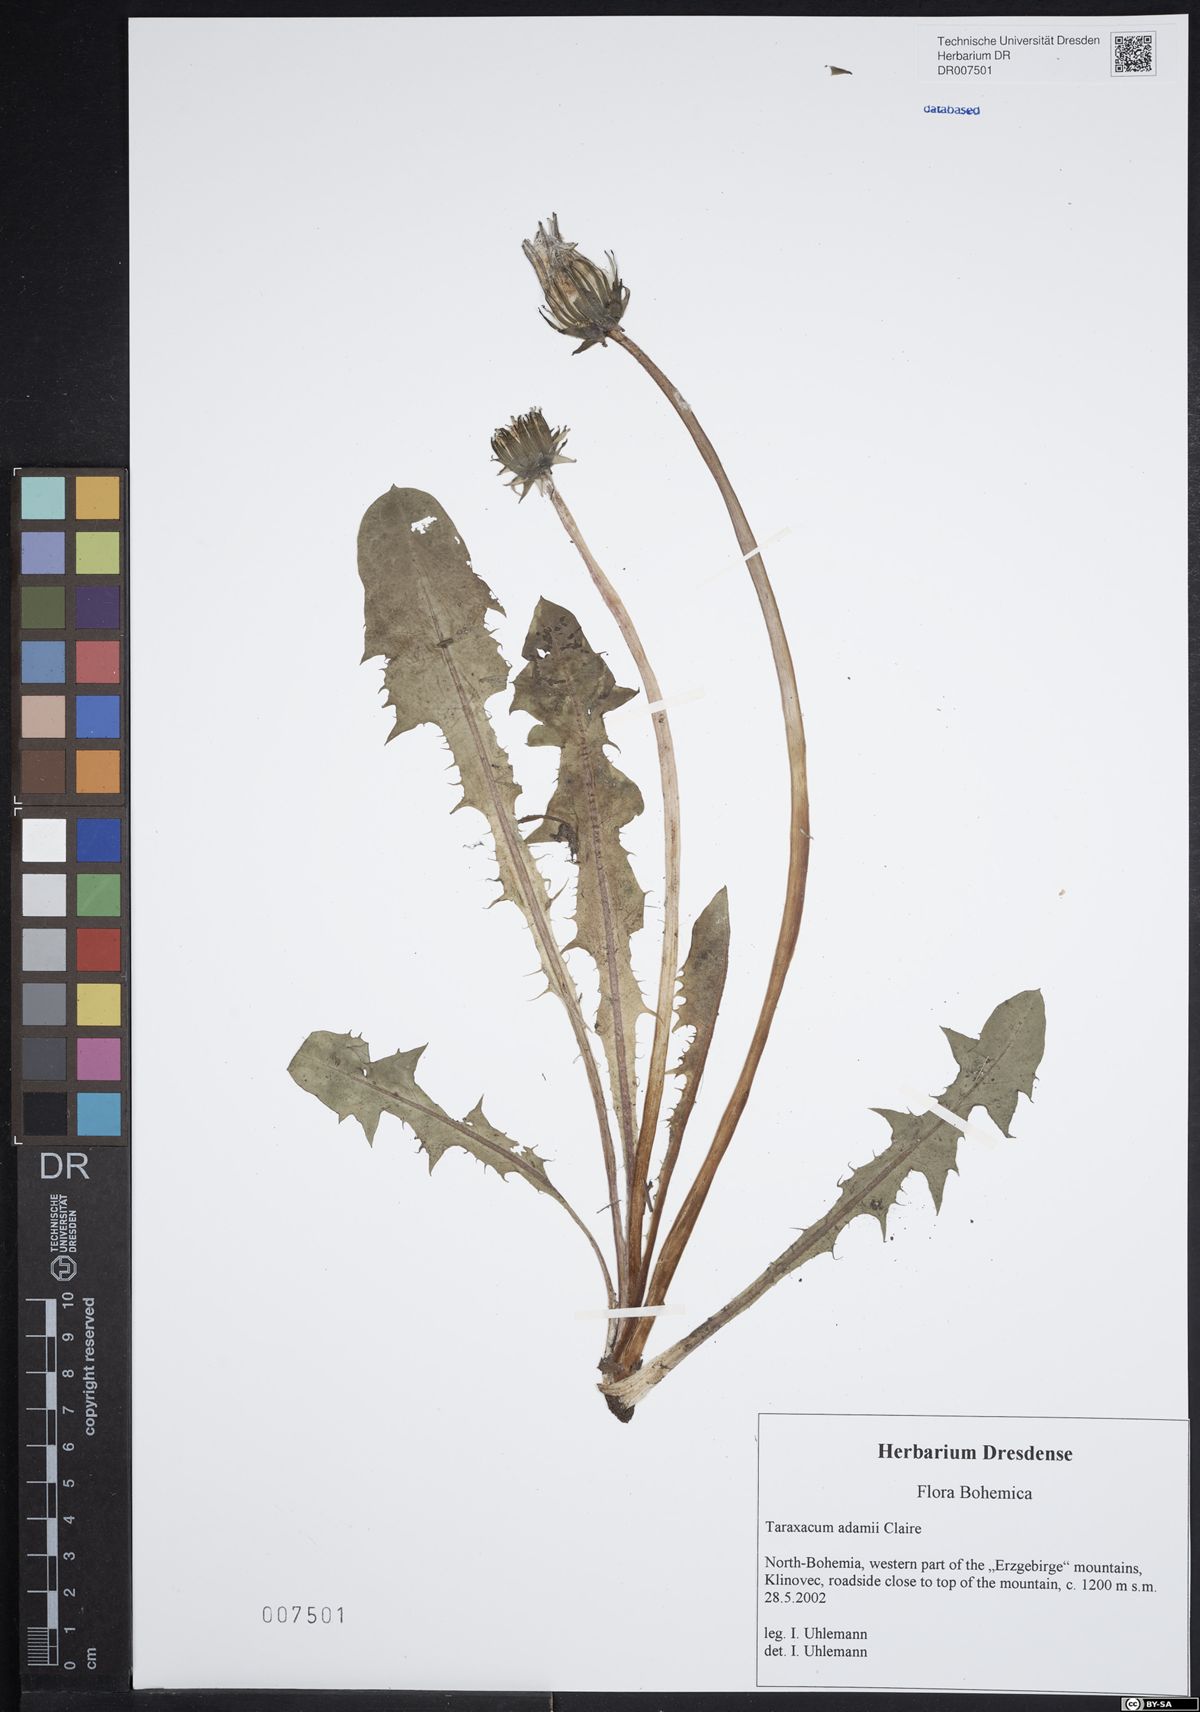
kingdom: Plantae
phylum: Tracheophyta
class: Magnoliopsida
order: Asterales
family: Asteraceae
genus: Taraxacum
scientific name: Taraxacum adamii
